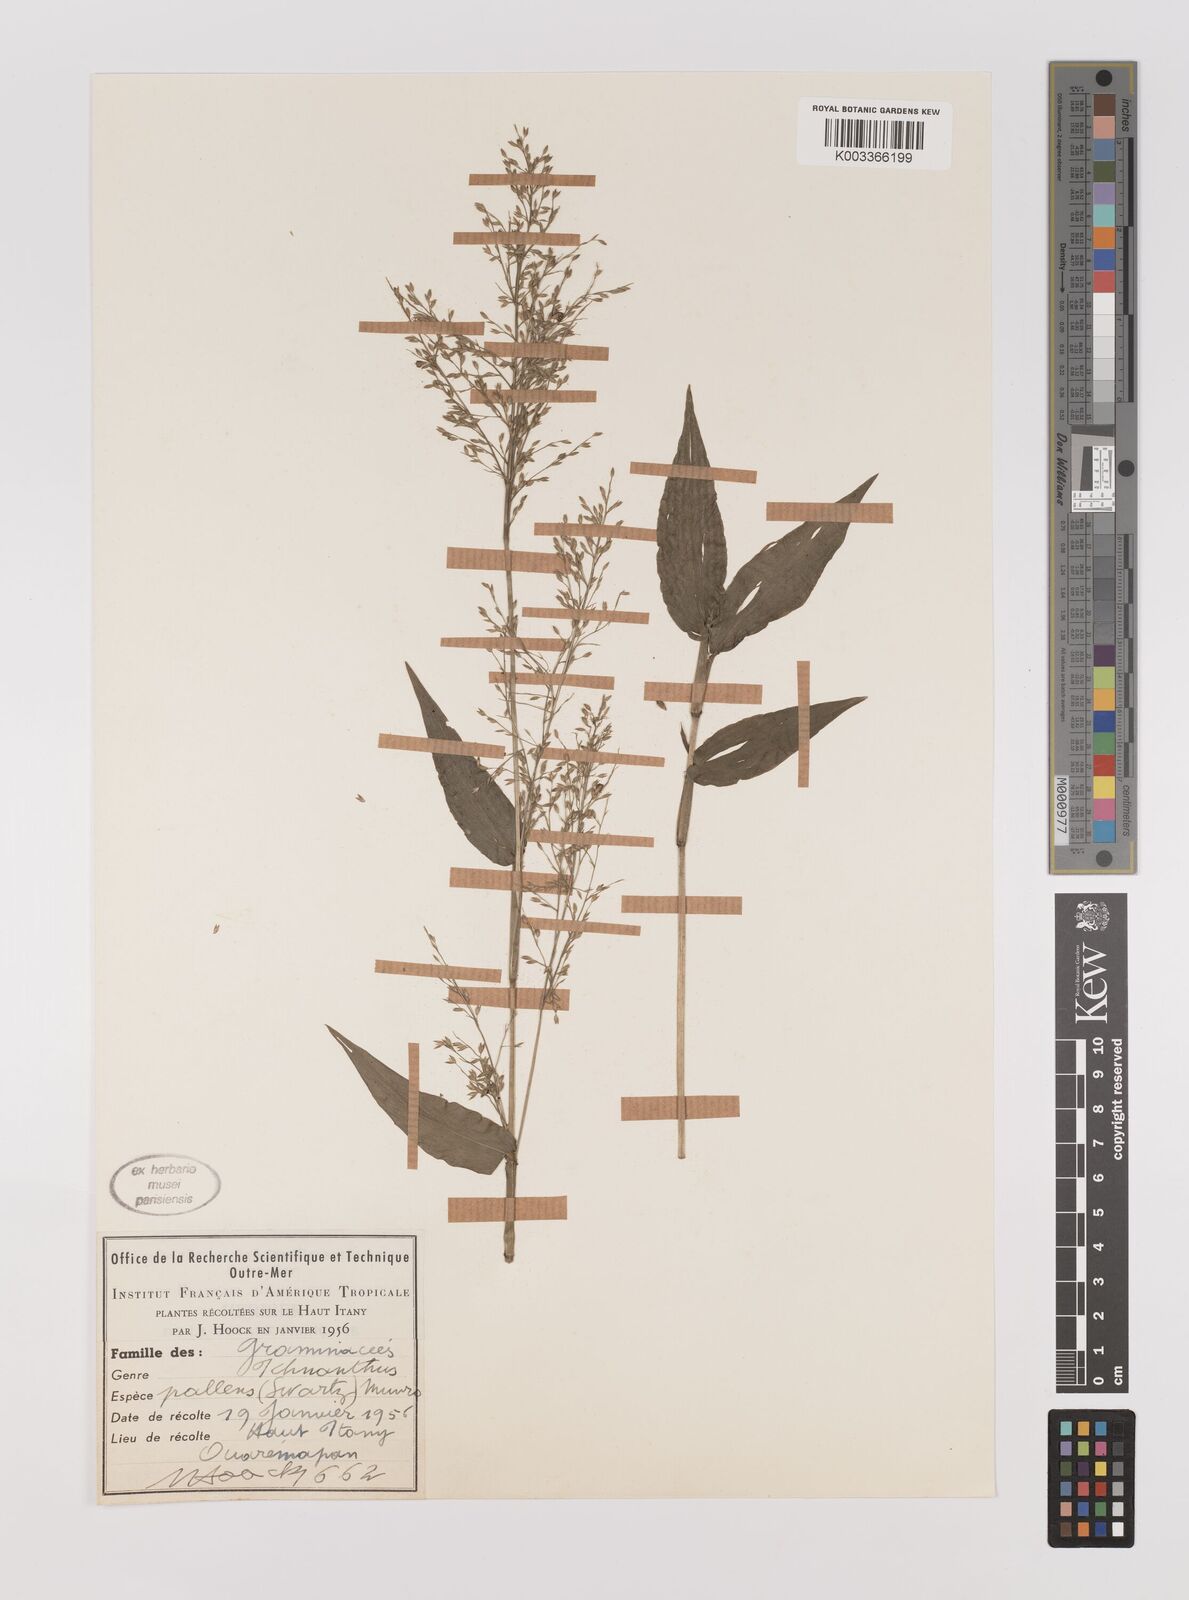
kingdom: Plantae
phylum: Tracheophyta
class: Liliopsida
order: Poales
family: Poaceae
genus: Ichnanthus
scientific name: Ichnanthus pallens
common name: Water grass
